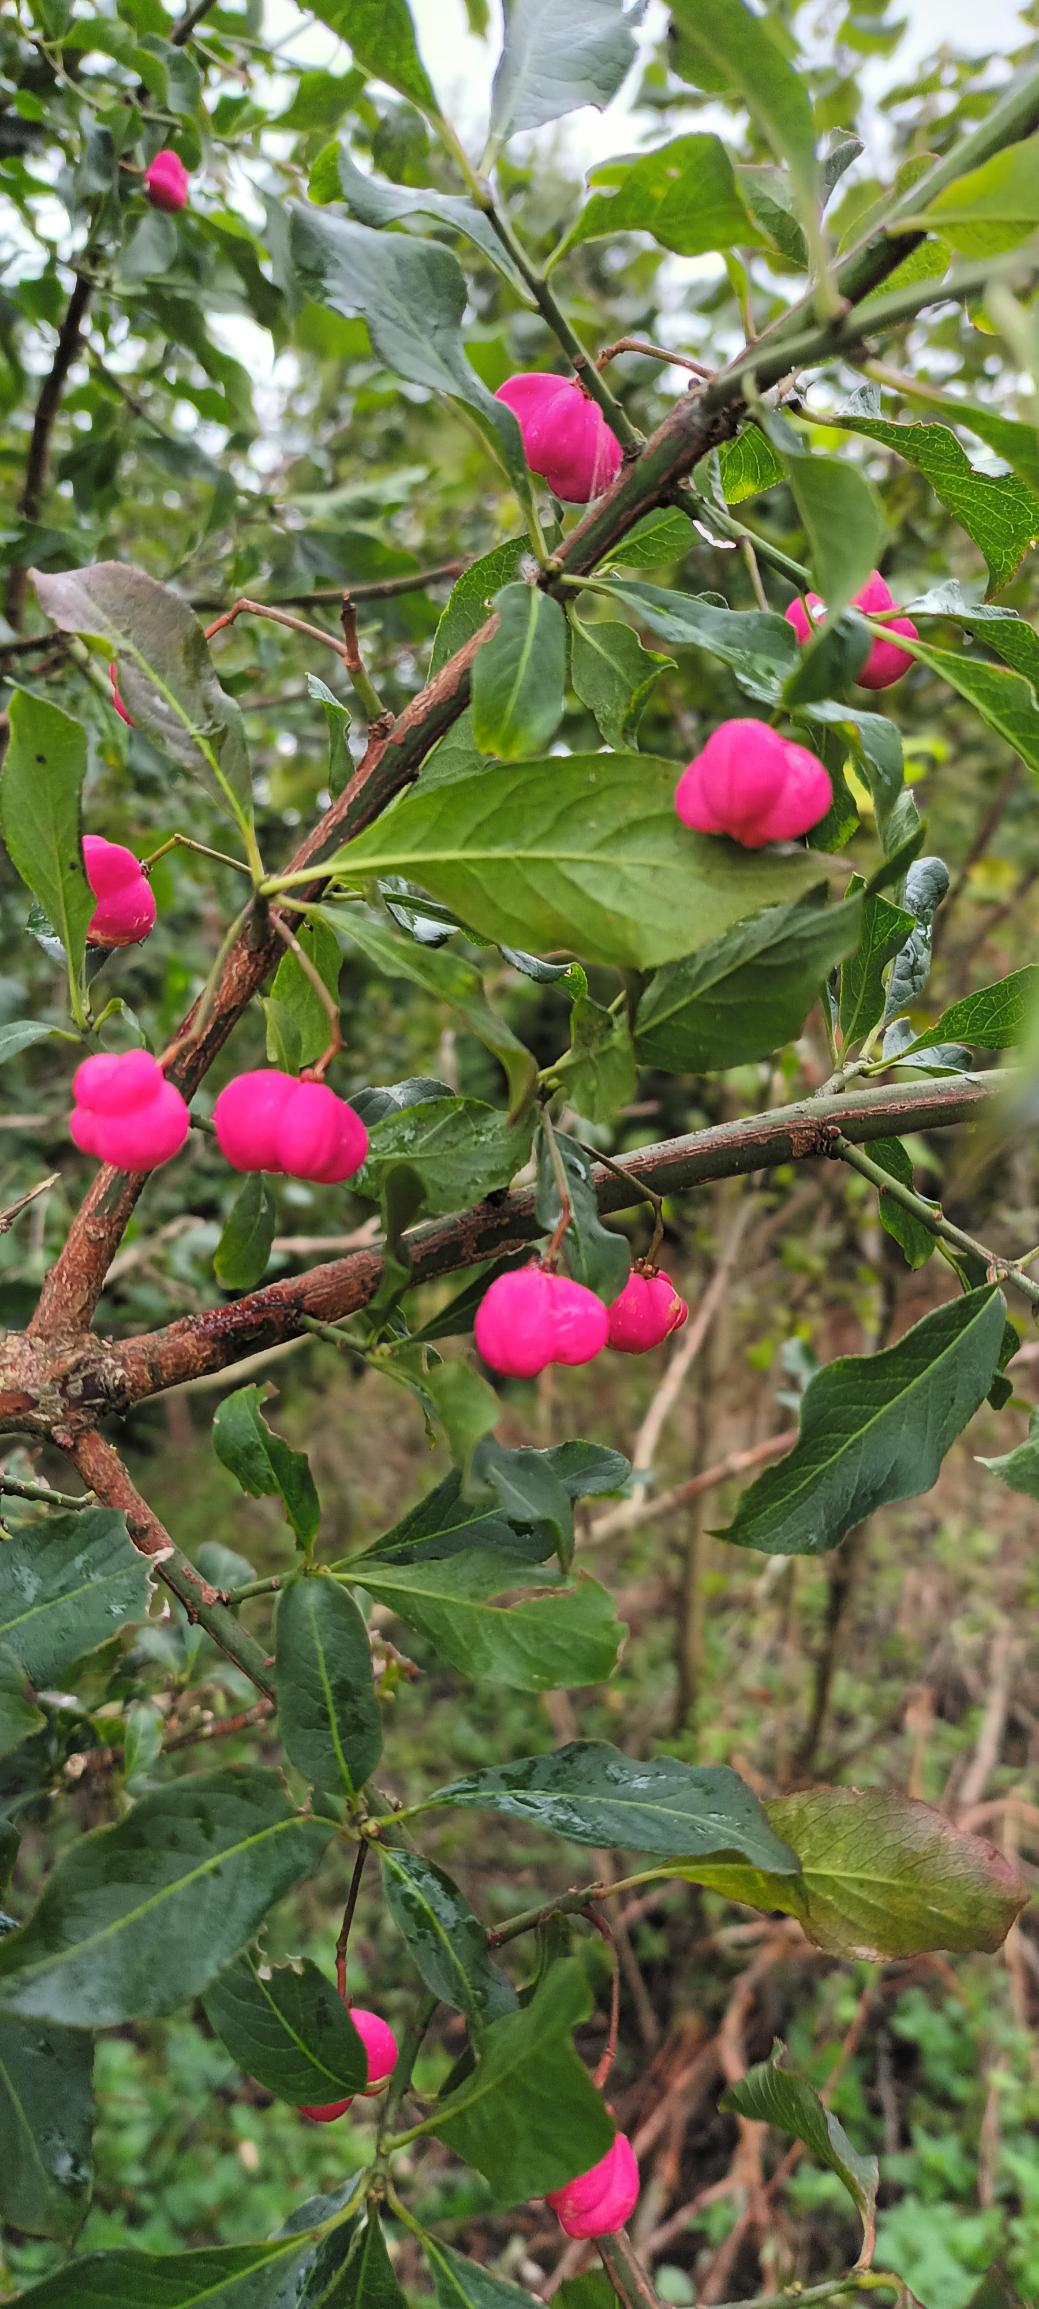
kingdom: Plantae
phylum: Tracheophyta
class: Magnoliopsida
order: Celastrales
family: Celastraceae
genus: Euonymus
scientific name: Euonymus europaeus
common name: Benved
